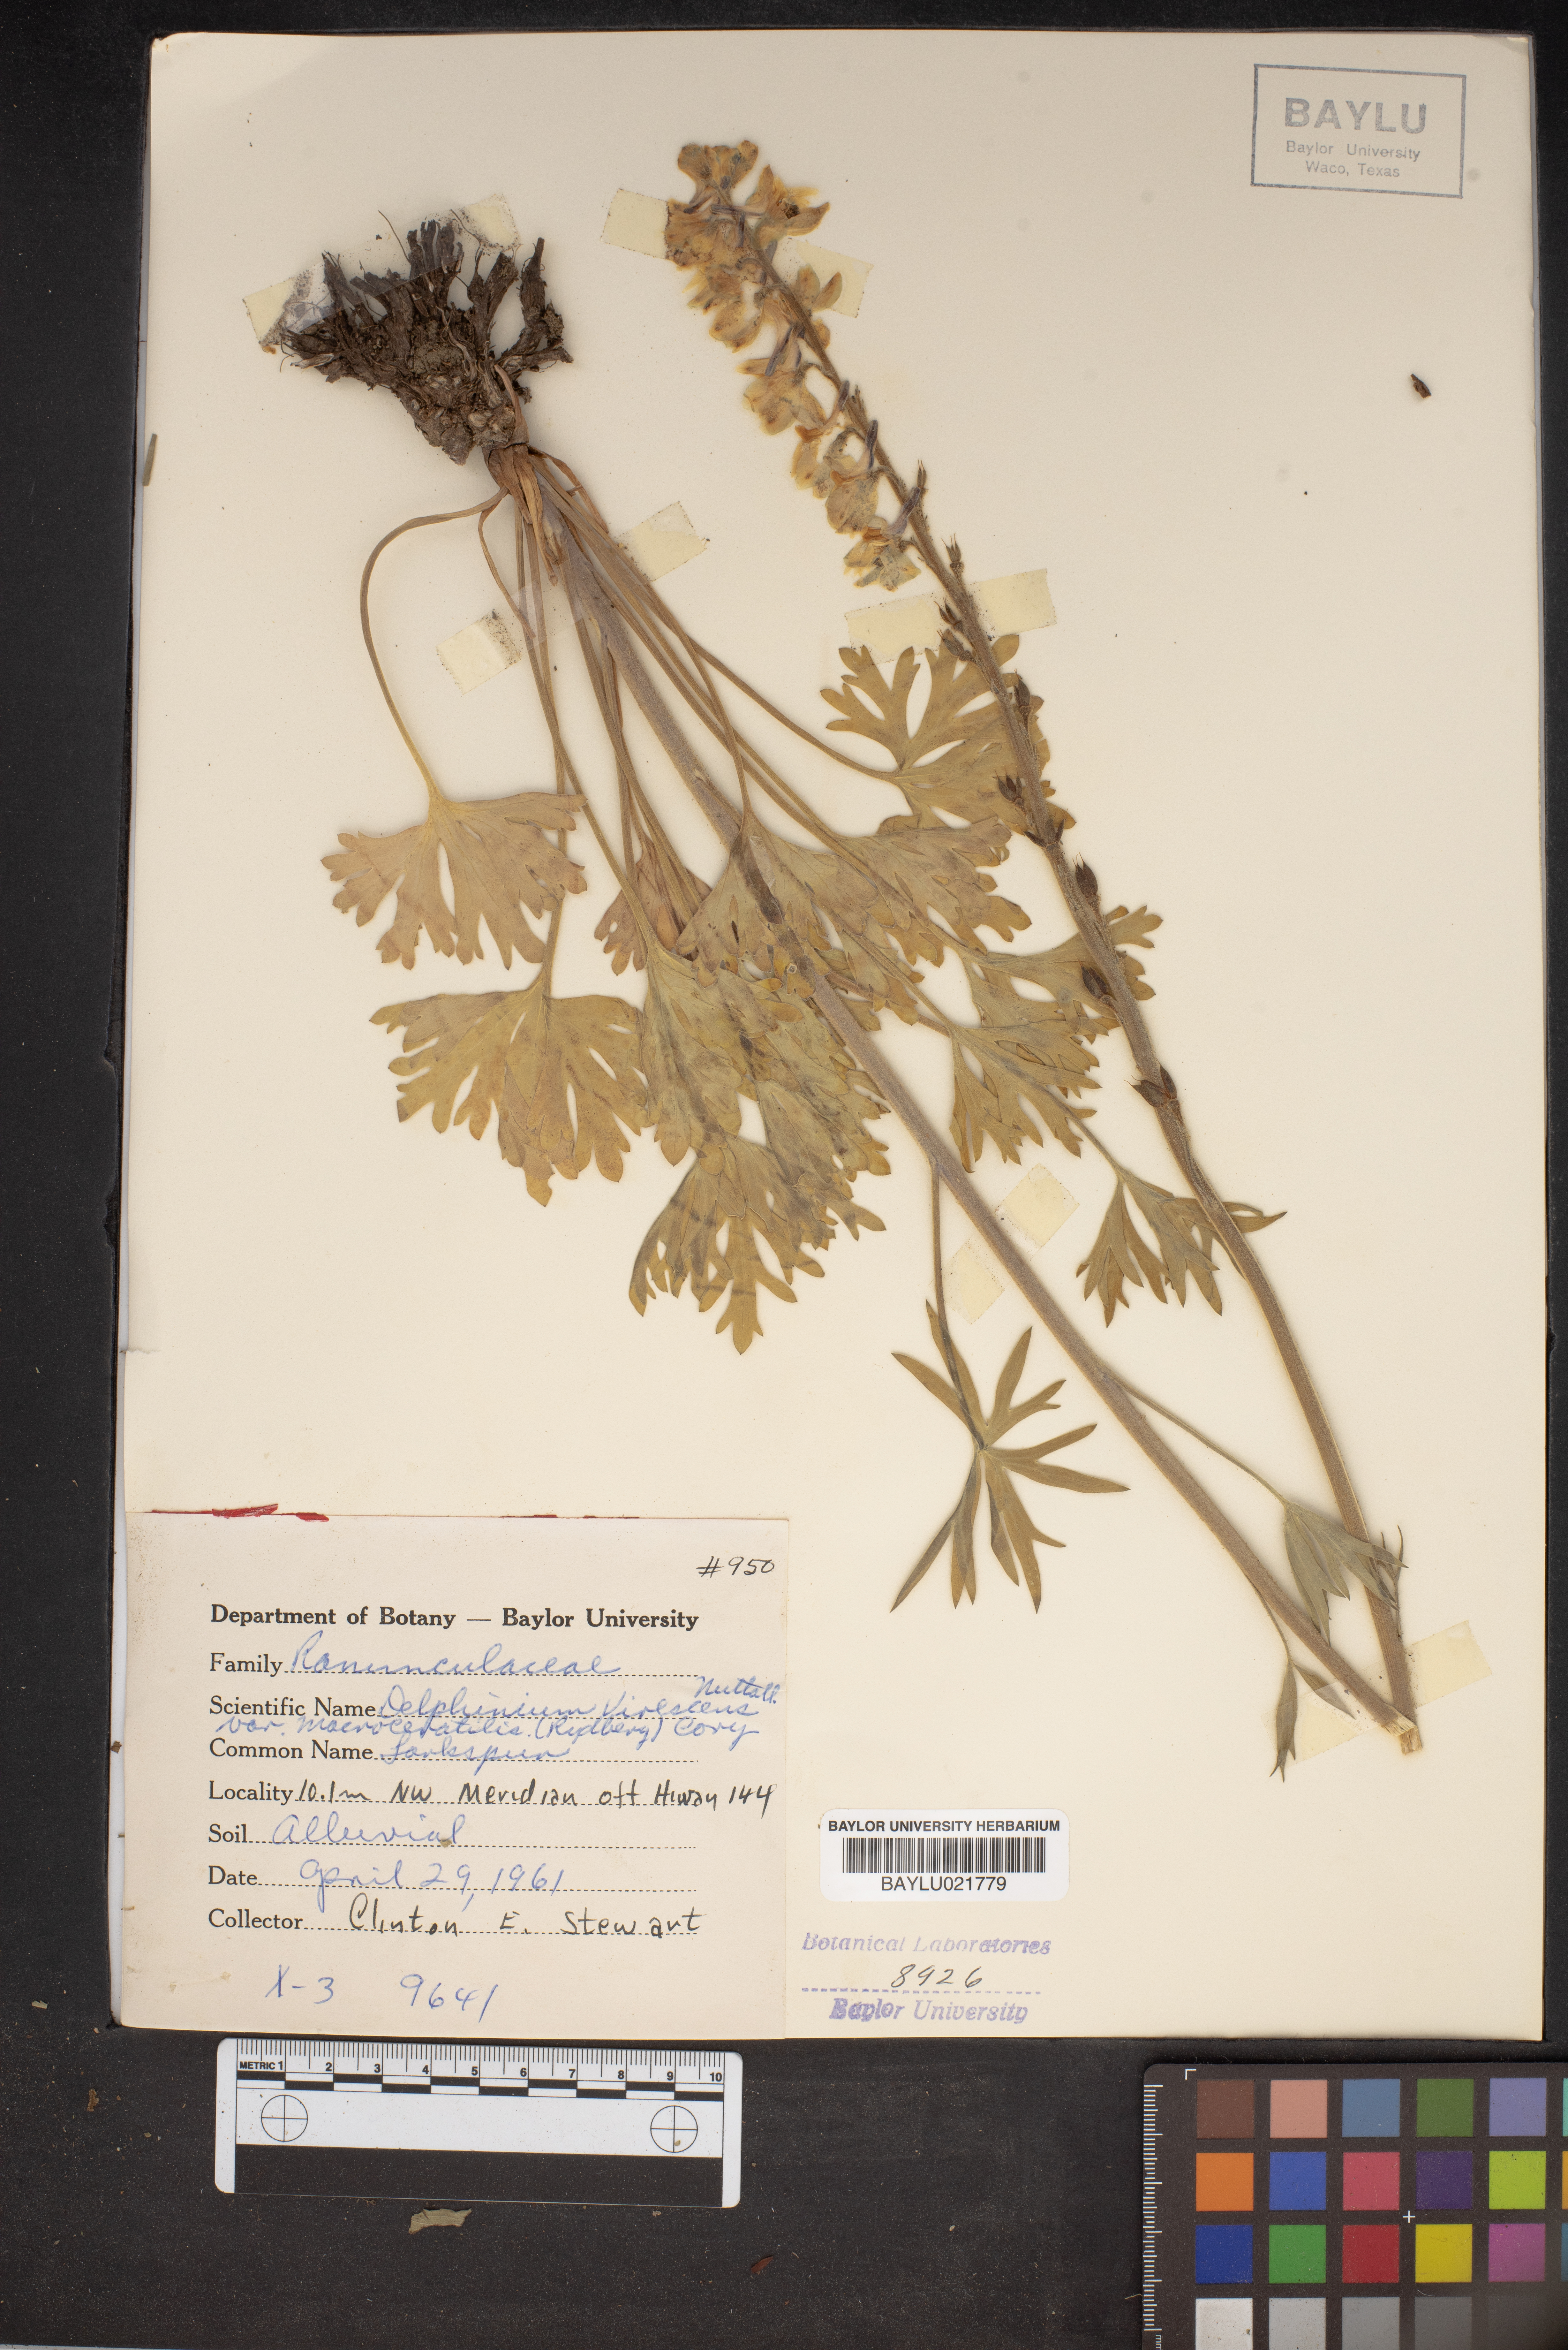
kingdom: Plantae
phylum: Tracheophyta
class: Magnoliopsida
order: Ranunculales
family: Ranunculaceae
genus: Delphinium
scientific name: Delphinium carolinianum
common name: Carolina larkspur
